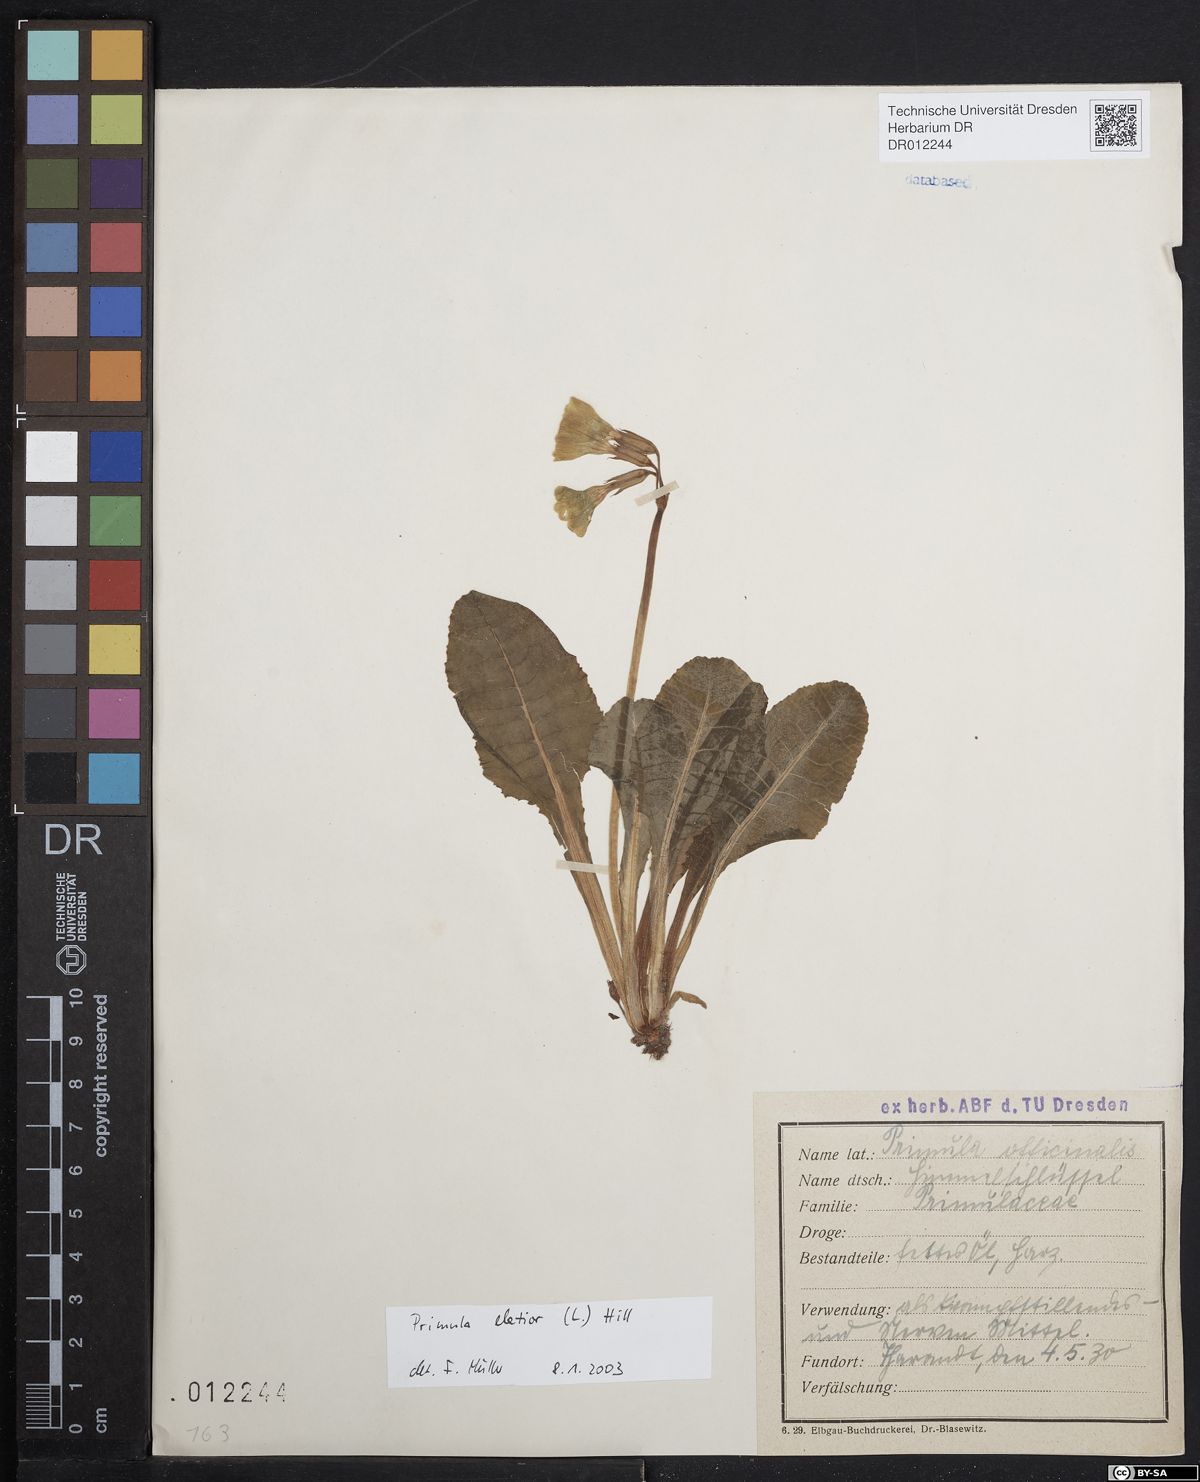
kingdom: Plantae
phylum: Tracheophyta
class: Magnoliopsida
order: Ericales
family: Primulaceae
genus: Primula
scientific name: Primula elatior
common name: Oxlip
